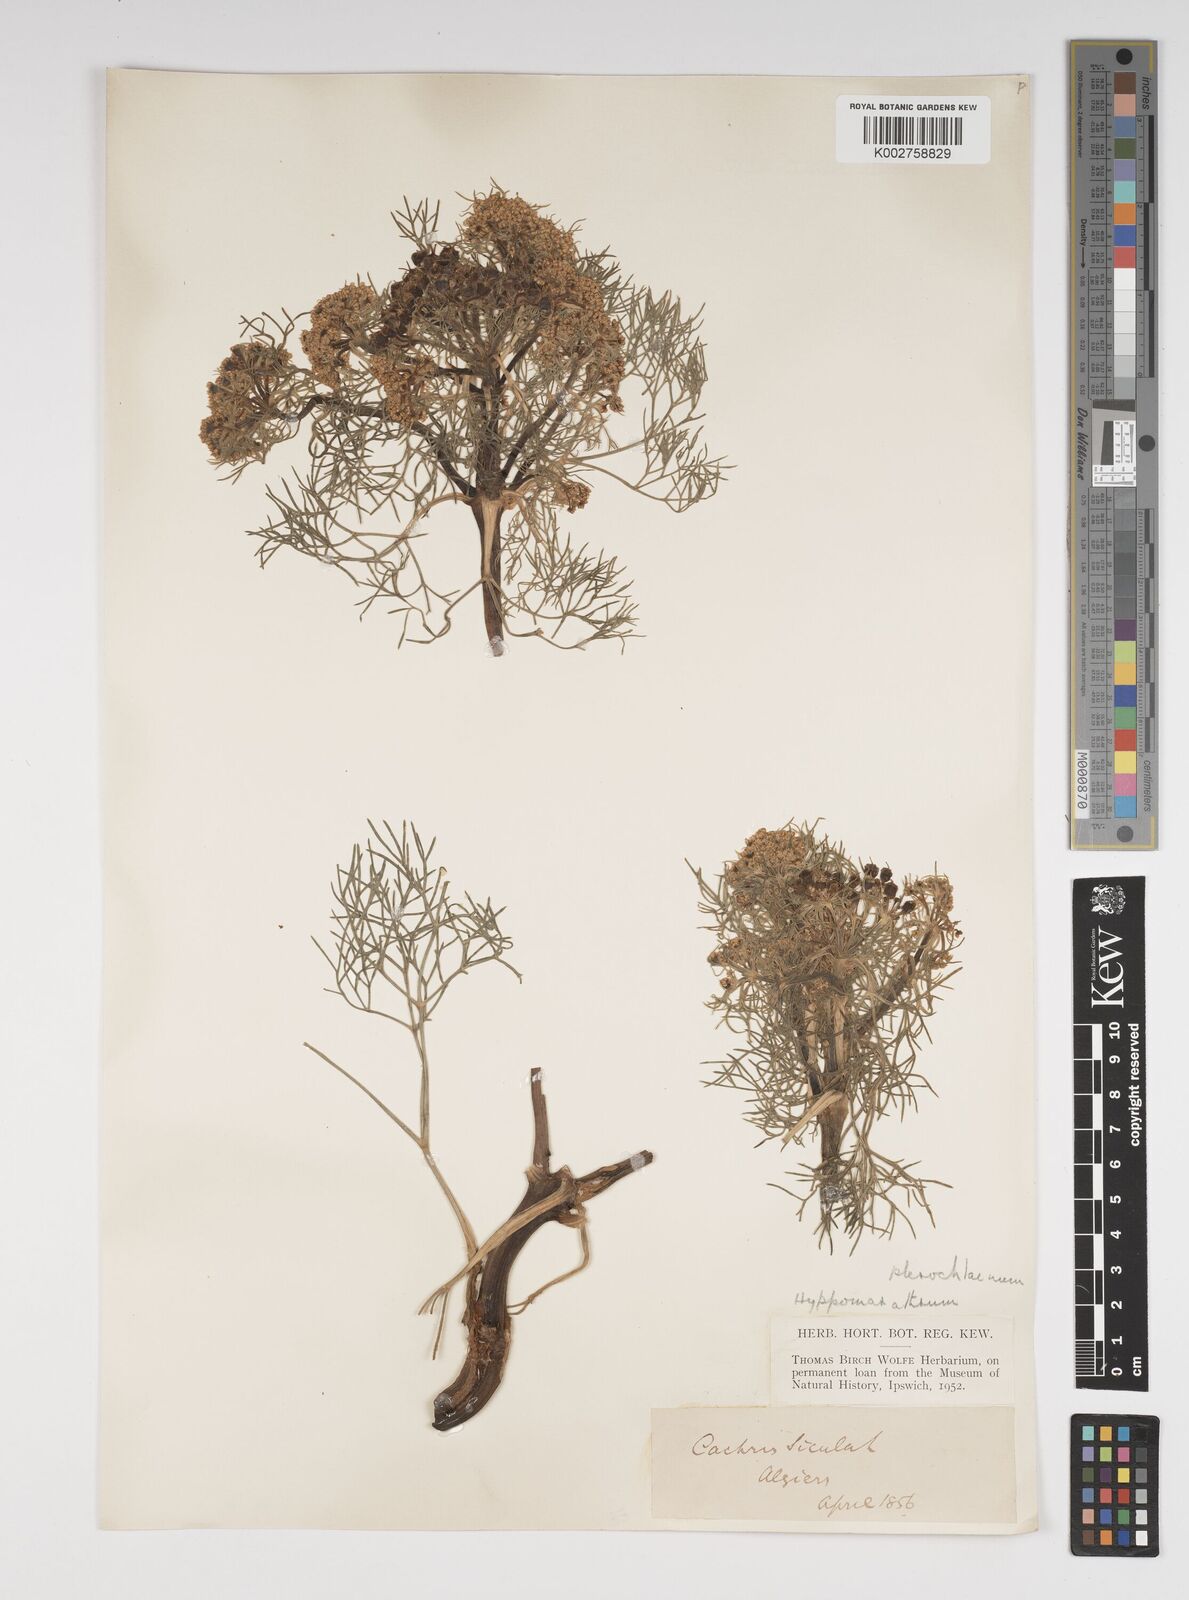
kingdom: Plantae
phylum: Tracheophyta
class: Magnoliopsida
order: Apiales
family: Apiaceae
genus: Cachrys
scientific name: Cachrys sicula
